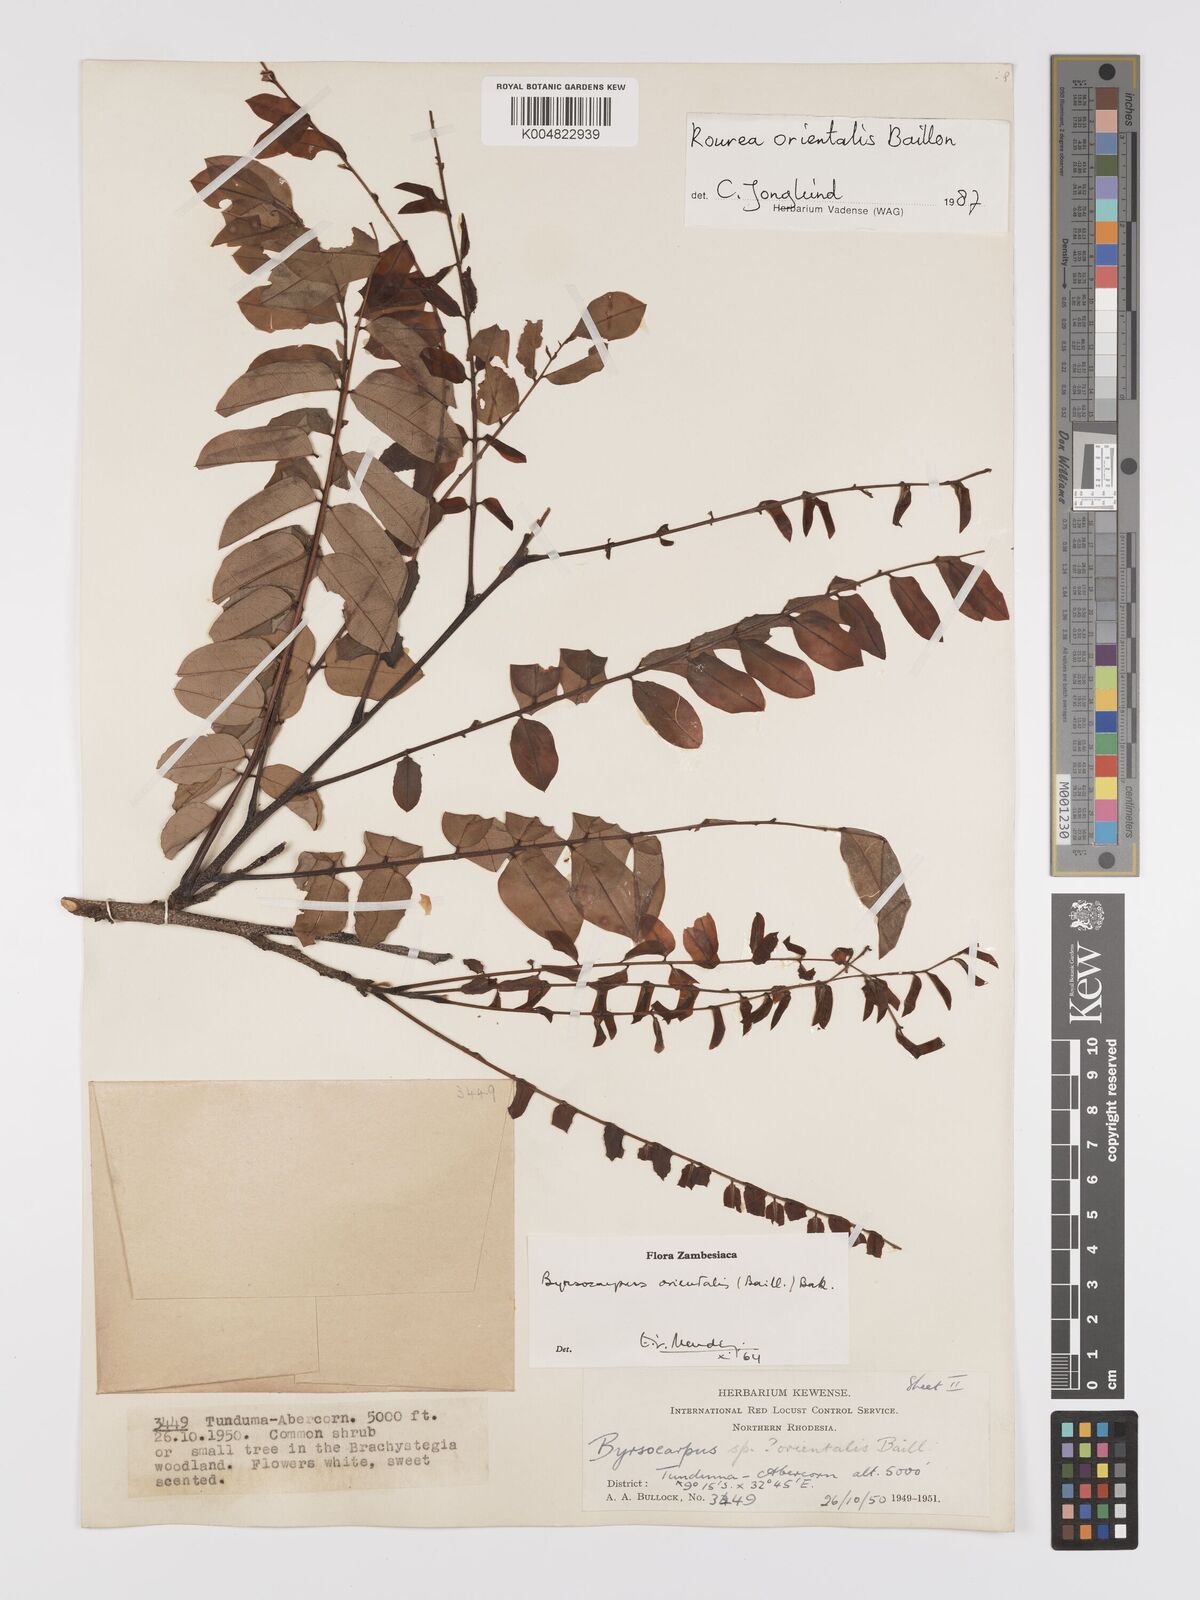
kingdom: Plantae
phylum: Tracheophyta
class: Magnoliopsida
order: Oxalidales
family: Connaraceae
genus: Rourea
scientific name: Rourea orientalis
